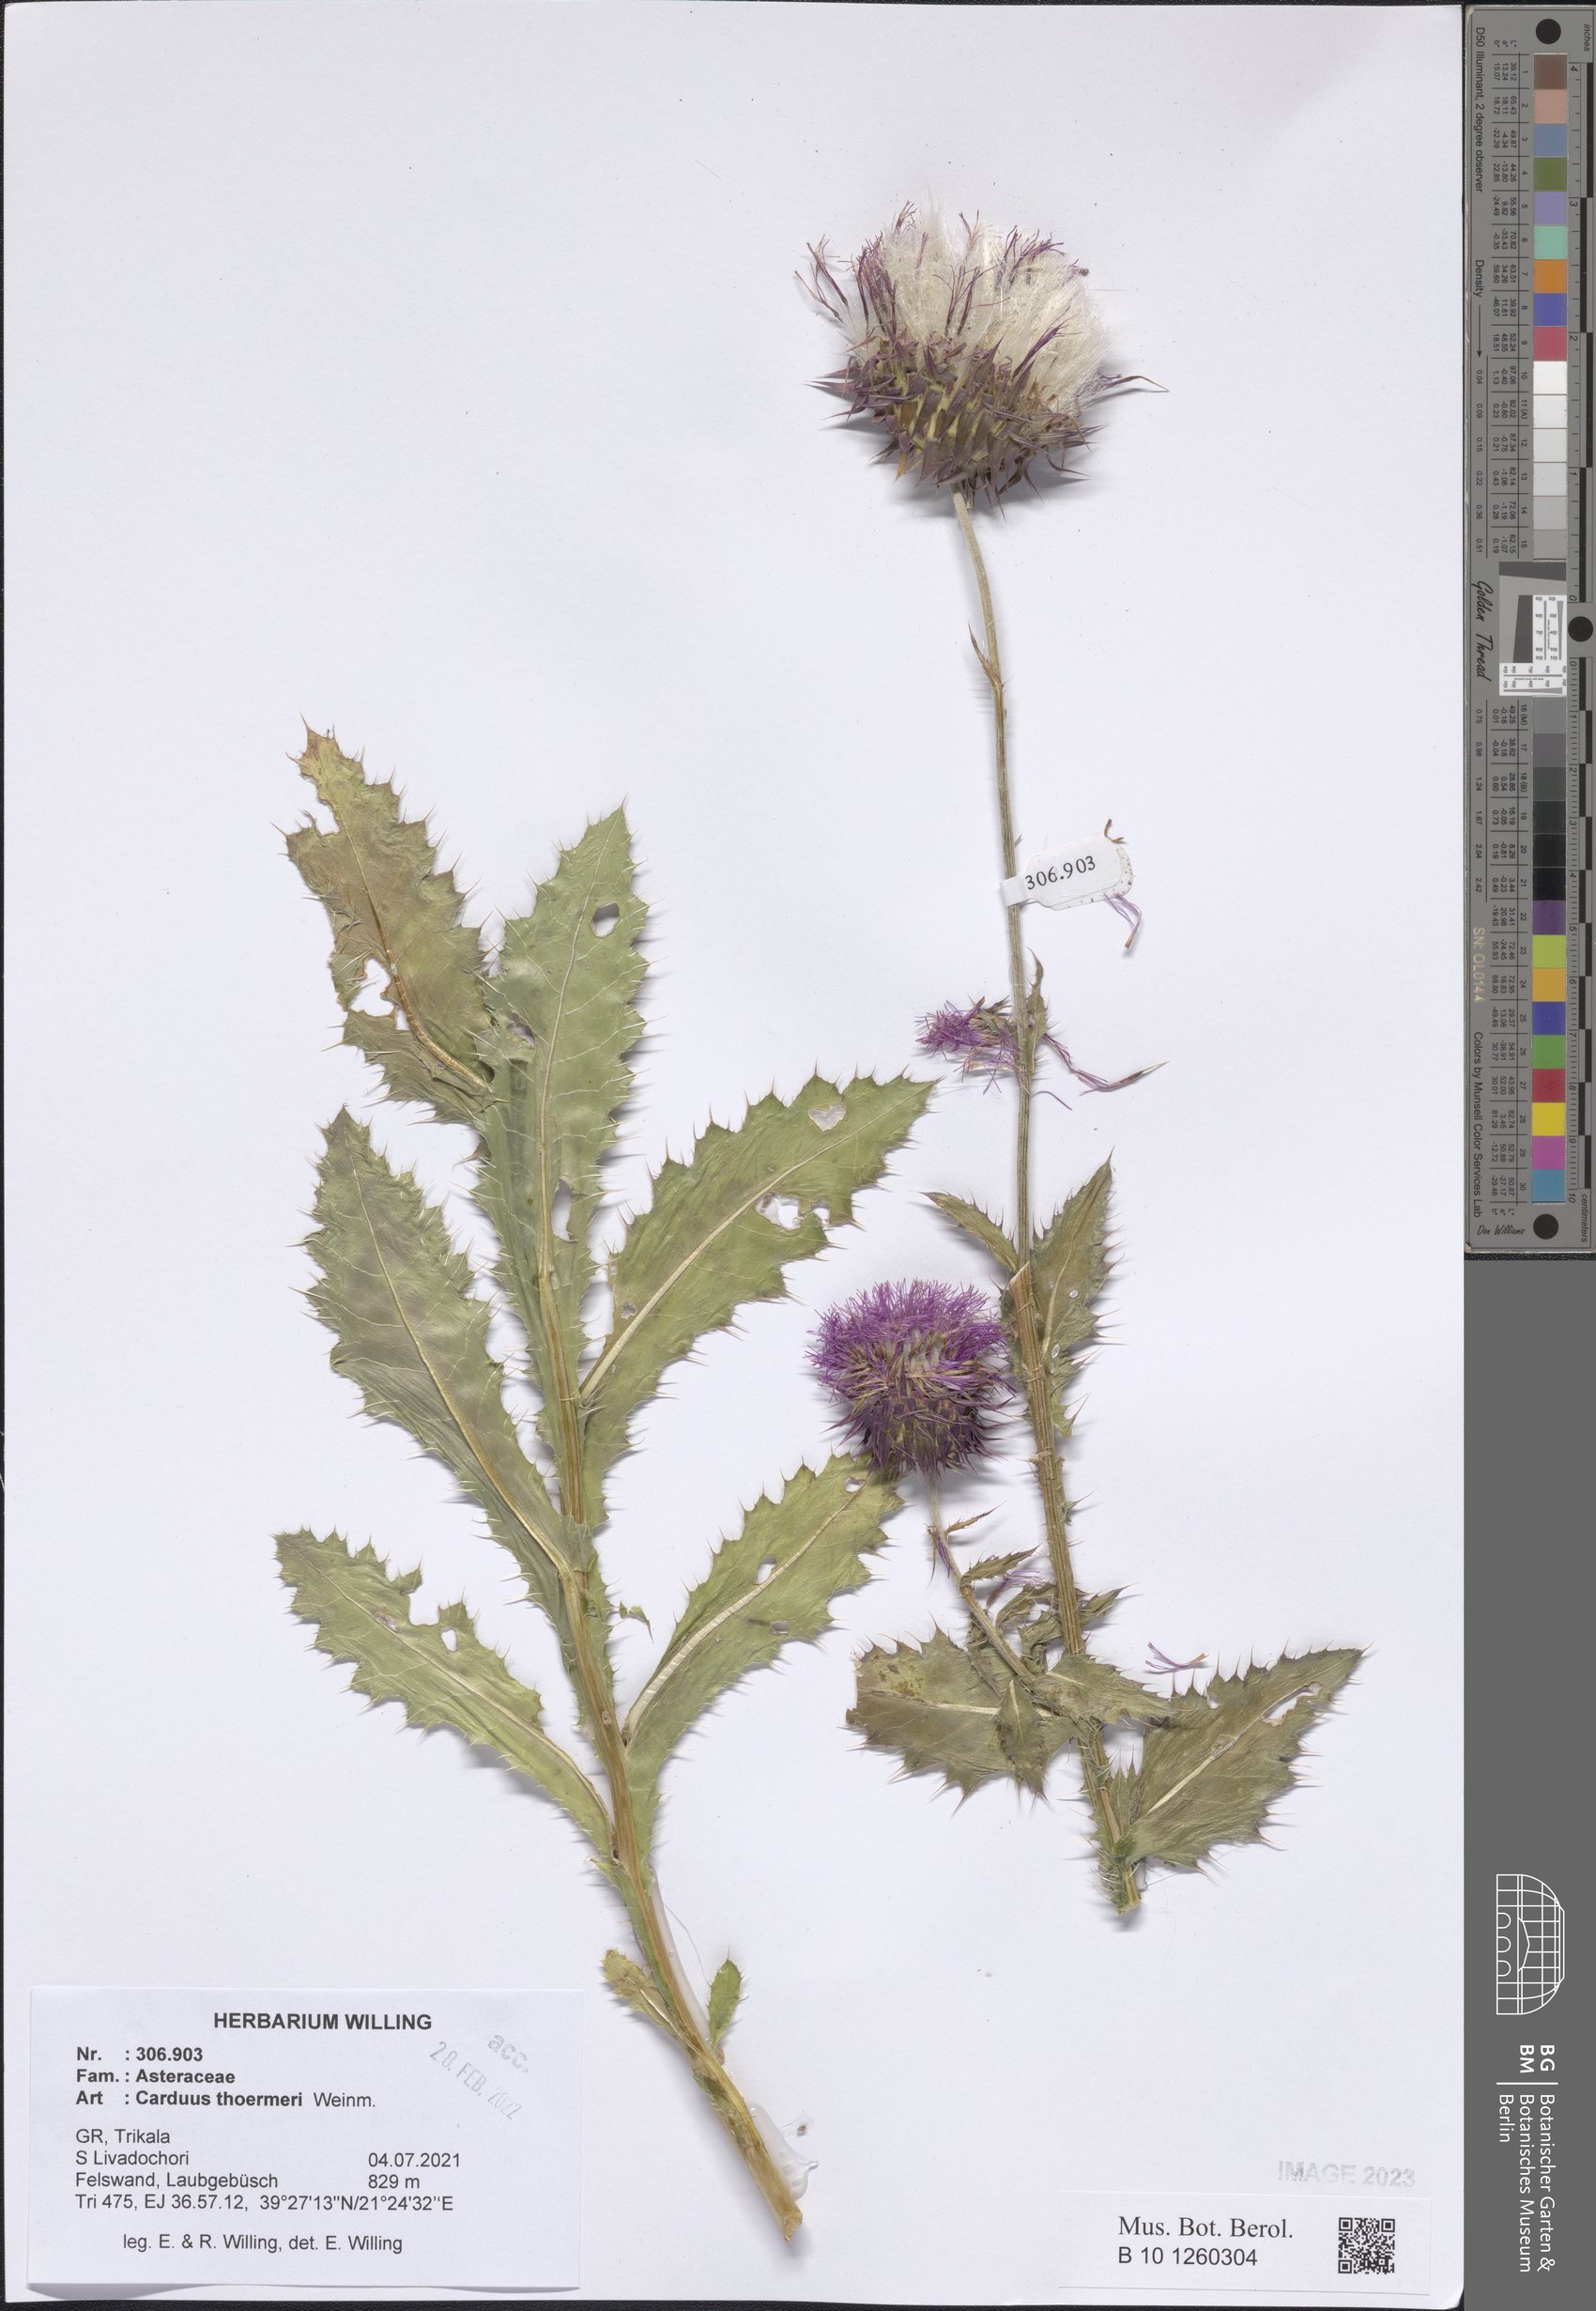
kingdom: Plantae
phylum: Tracheophyta
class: Magnoliopsida
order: Asterales
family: Asteraceae
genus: Carduus
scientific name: Carduus nutans
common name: Musk thistle
